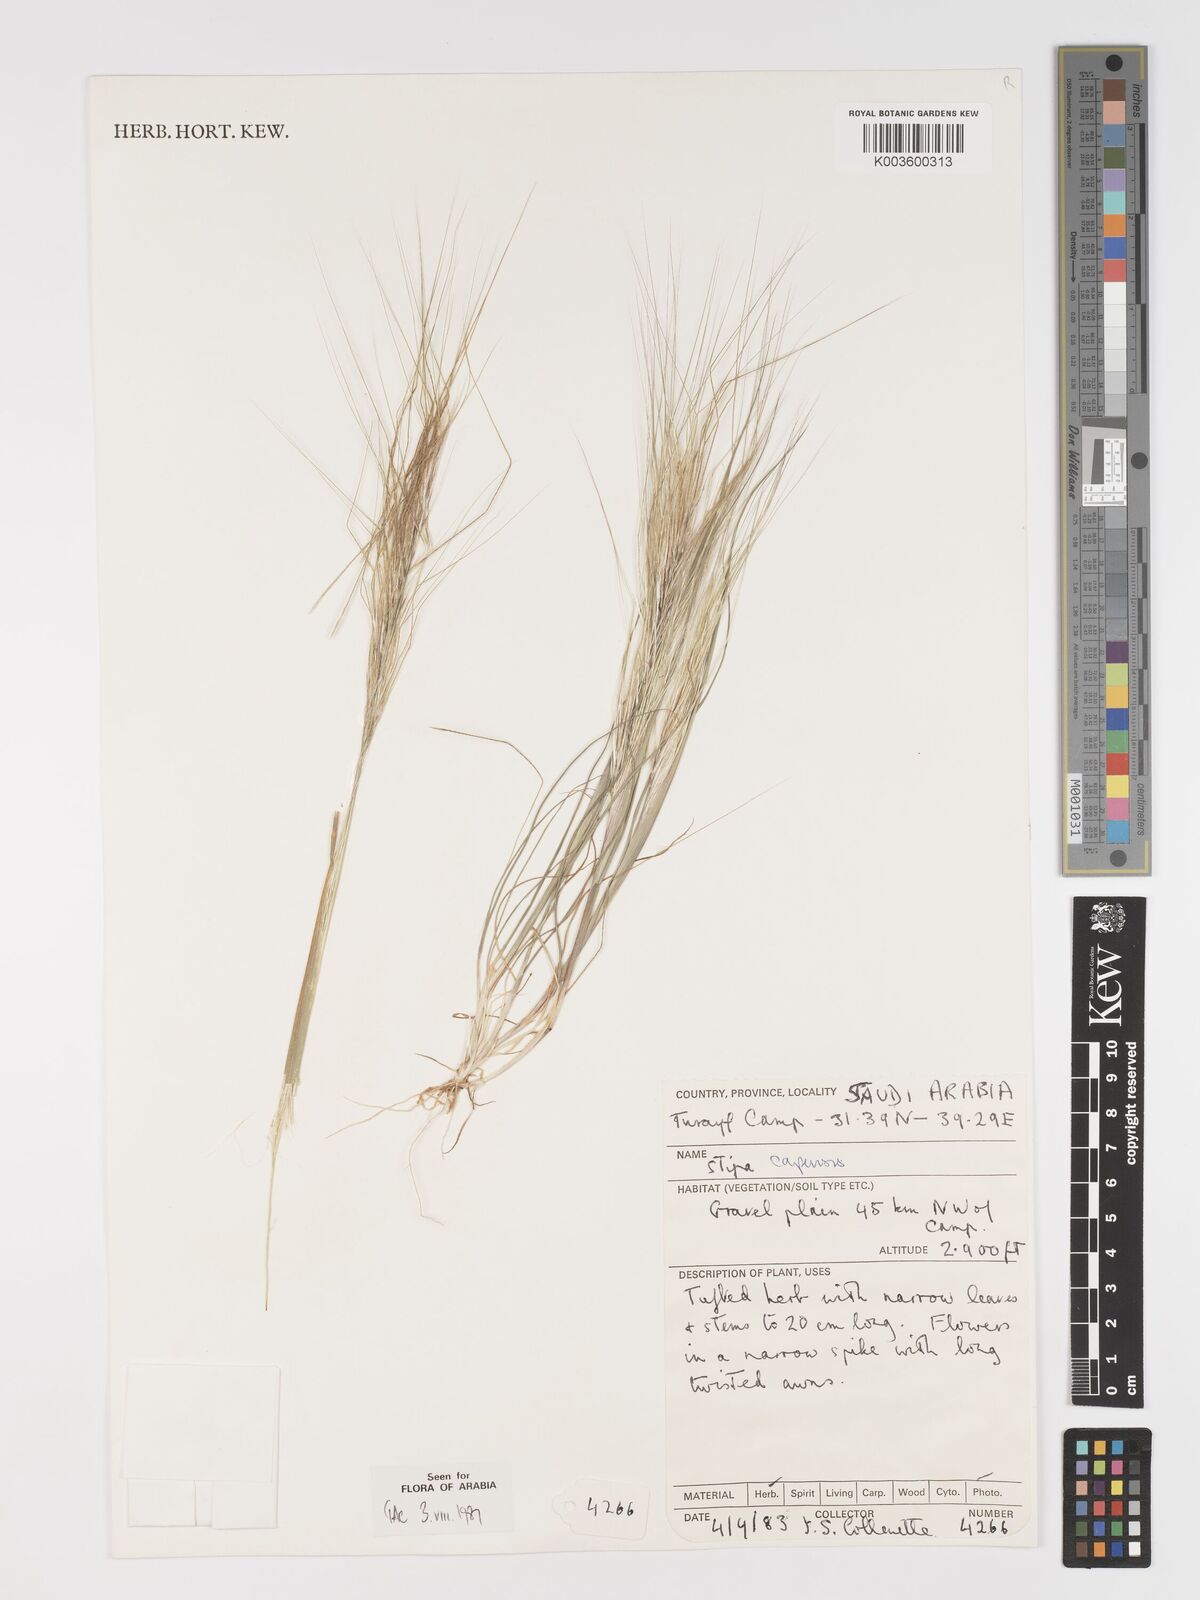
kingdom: Plantae
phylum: Tracheophyta
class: Liliopsida
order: Poales
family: Poaceae
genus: Stipellula
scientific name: Stipellula capensis
